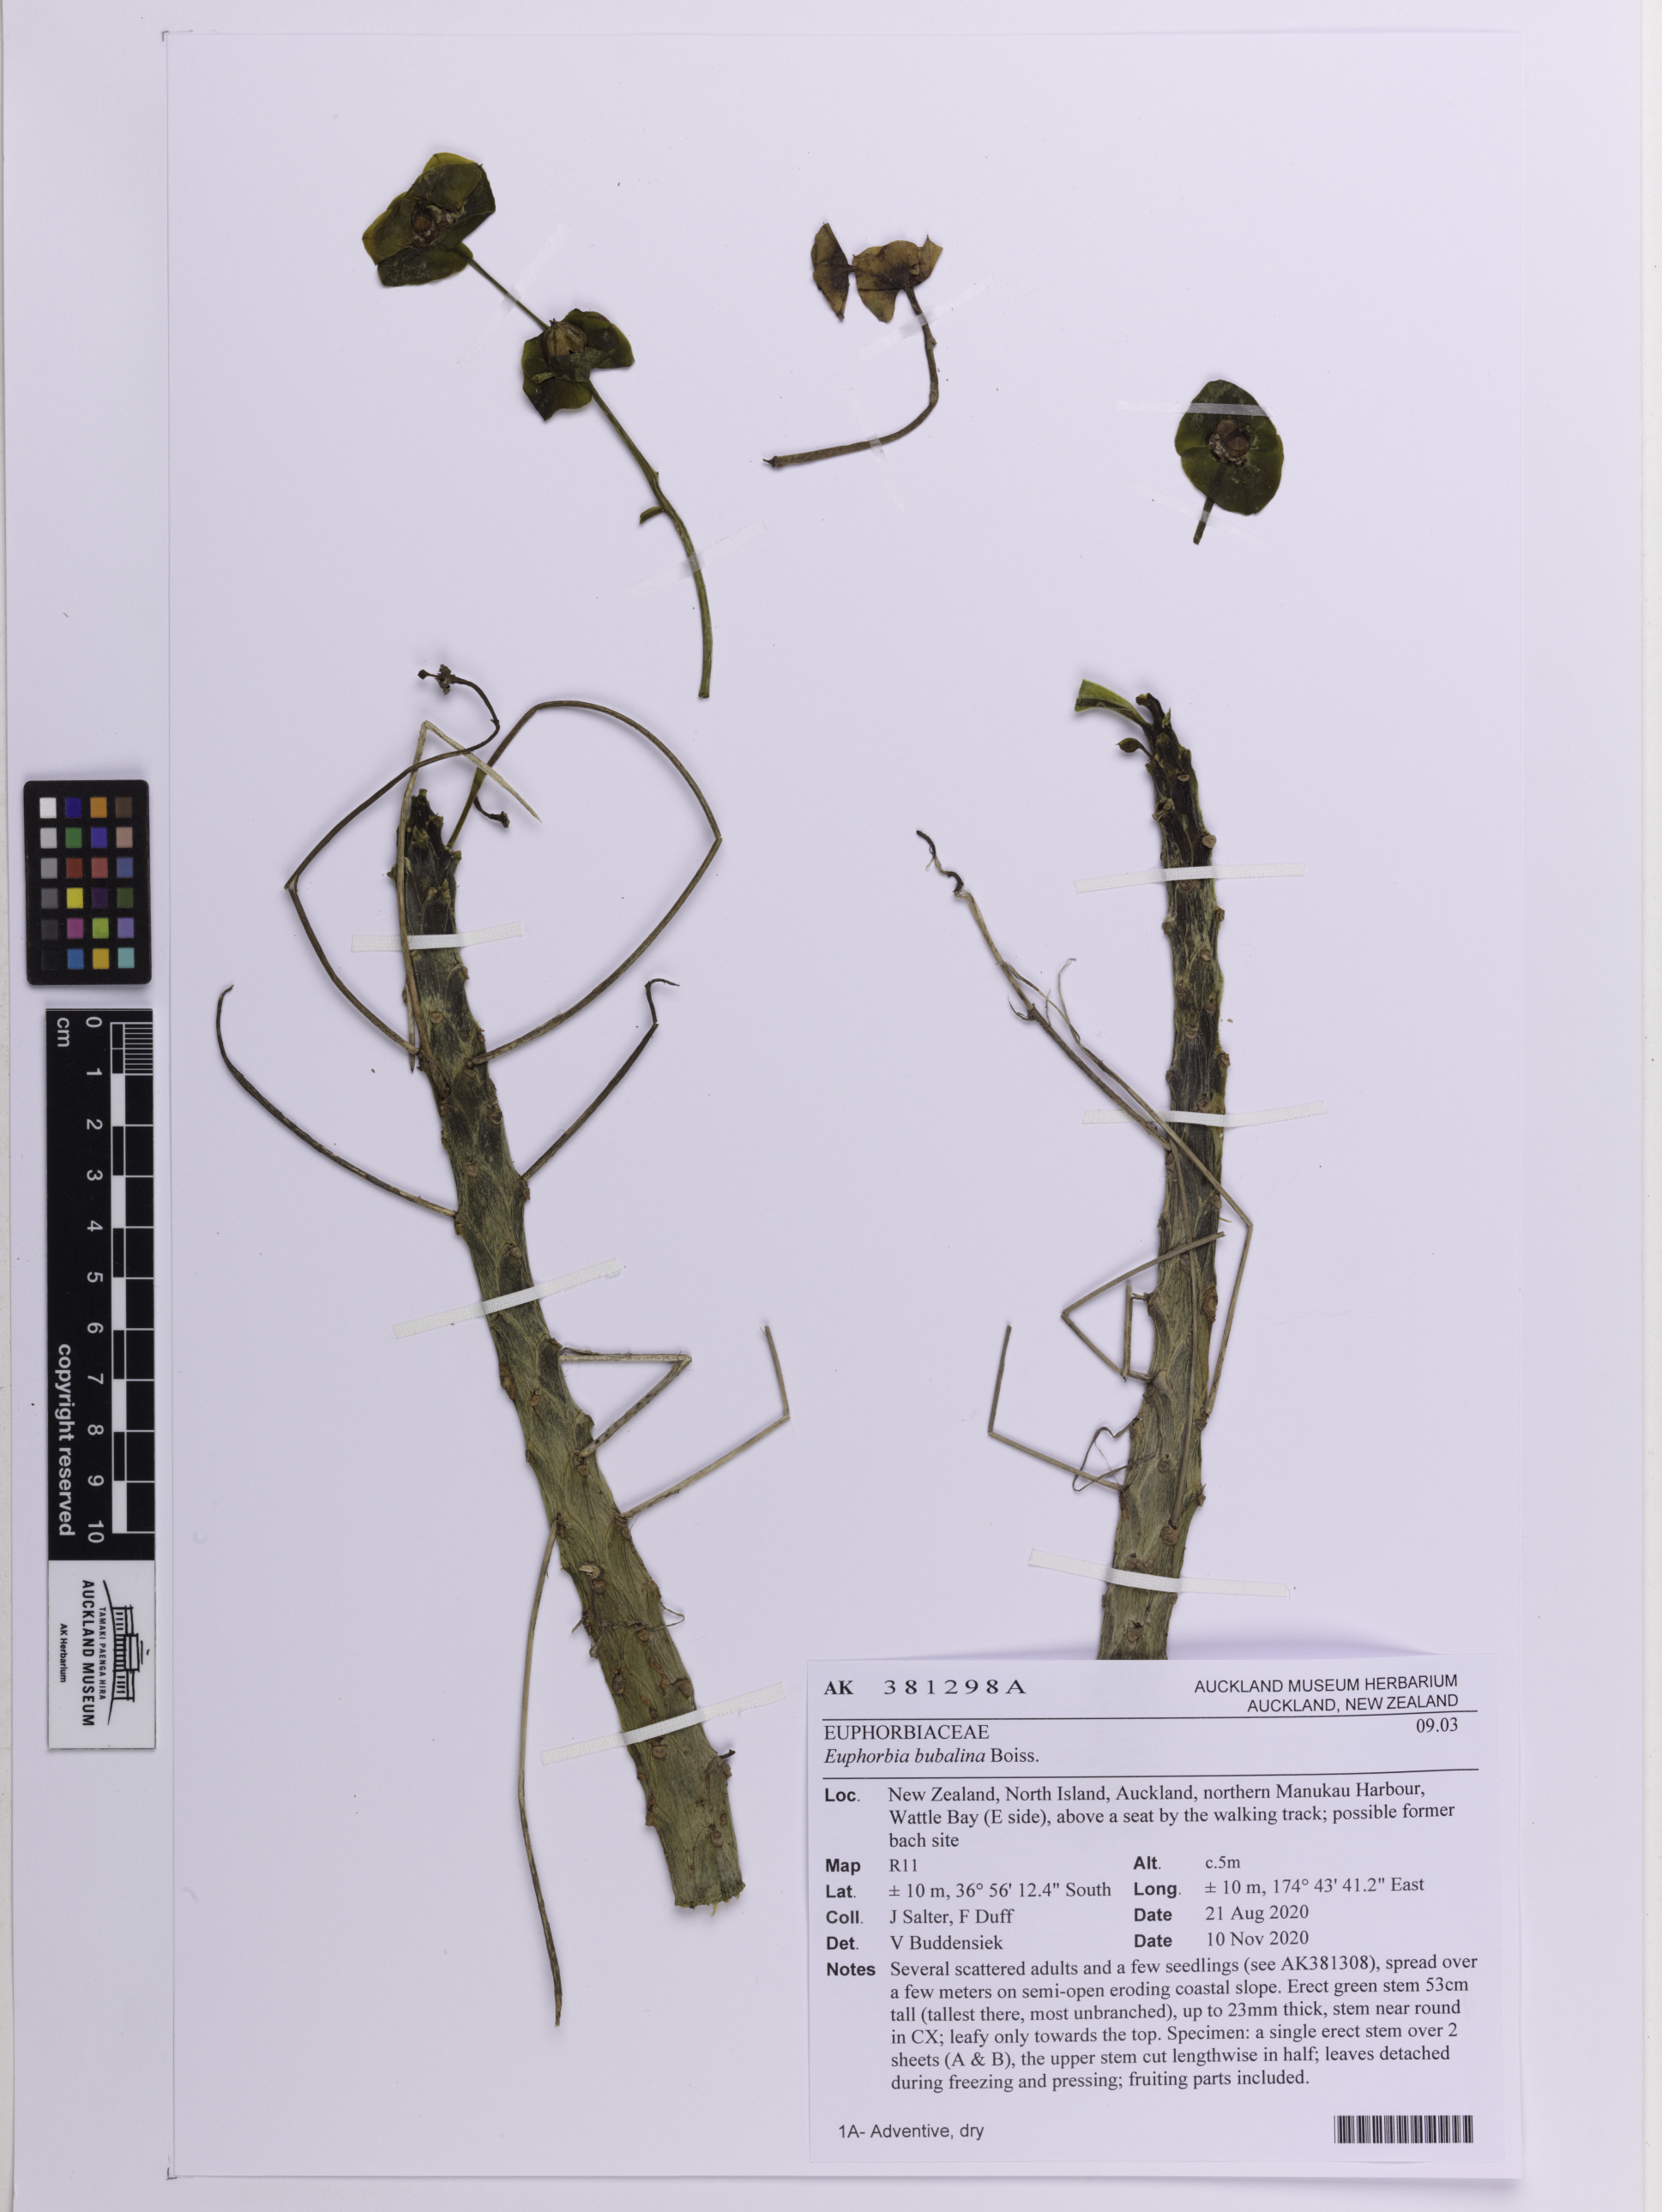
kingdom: Plantae
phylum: Tracheophyta
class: Magnoliopsida
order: Malpighiales
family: Euphorbiaceae
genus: Euphorbia
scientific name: Euphorbia bubalina
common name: Buffalo euphorbia
